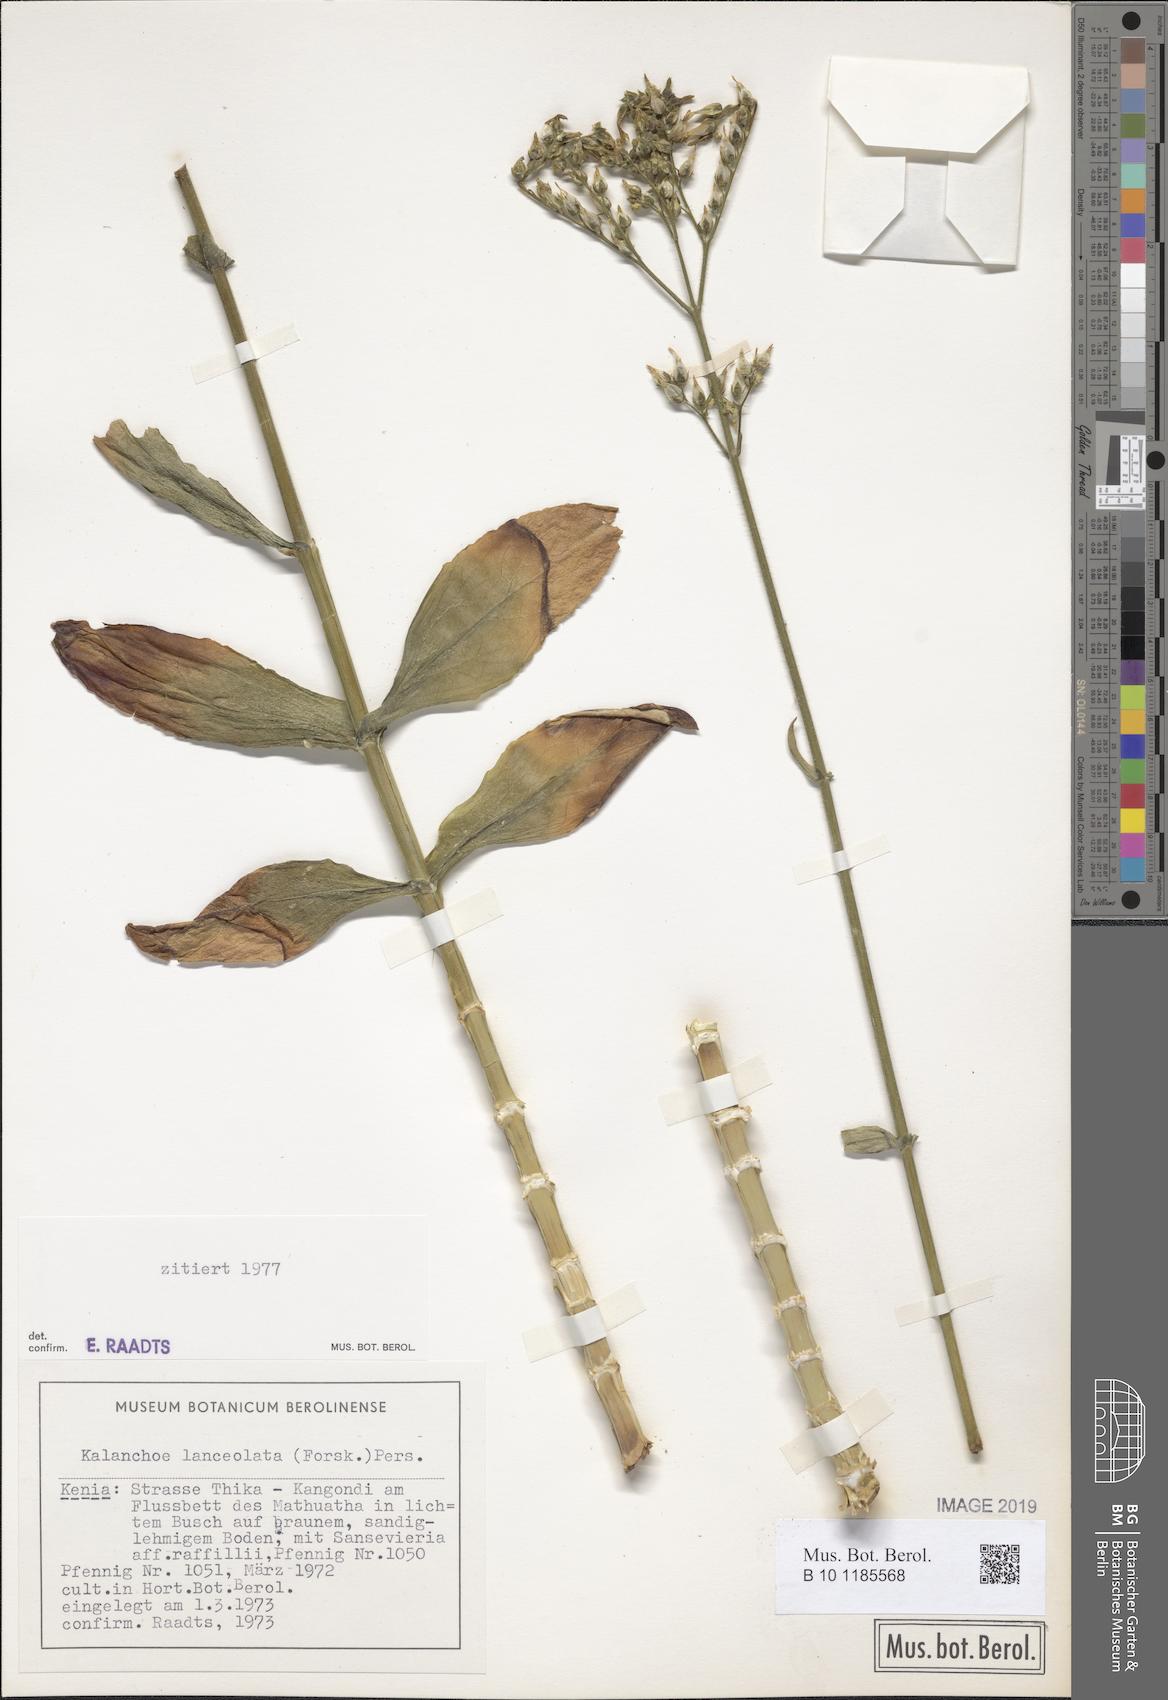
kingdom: Plantae
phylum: Tracheophyta
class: Magnoliopsida
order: Saxifragales
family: Crassulaceae
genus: Kalanchoe
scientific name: Kalanchoe lanceolata
